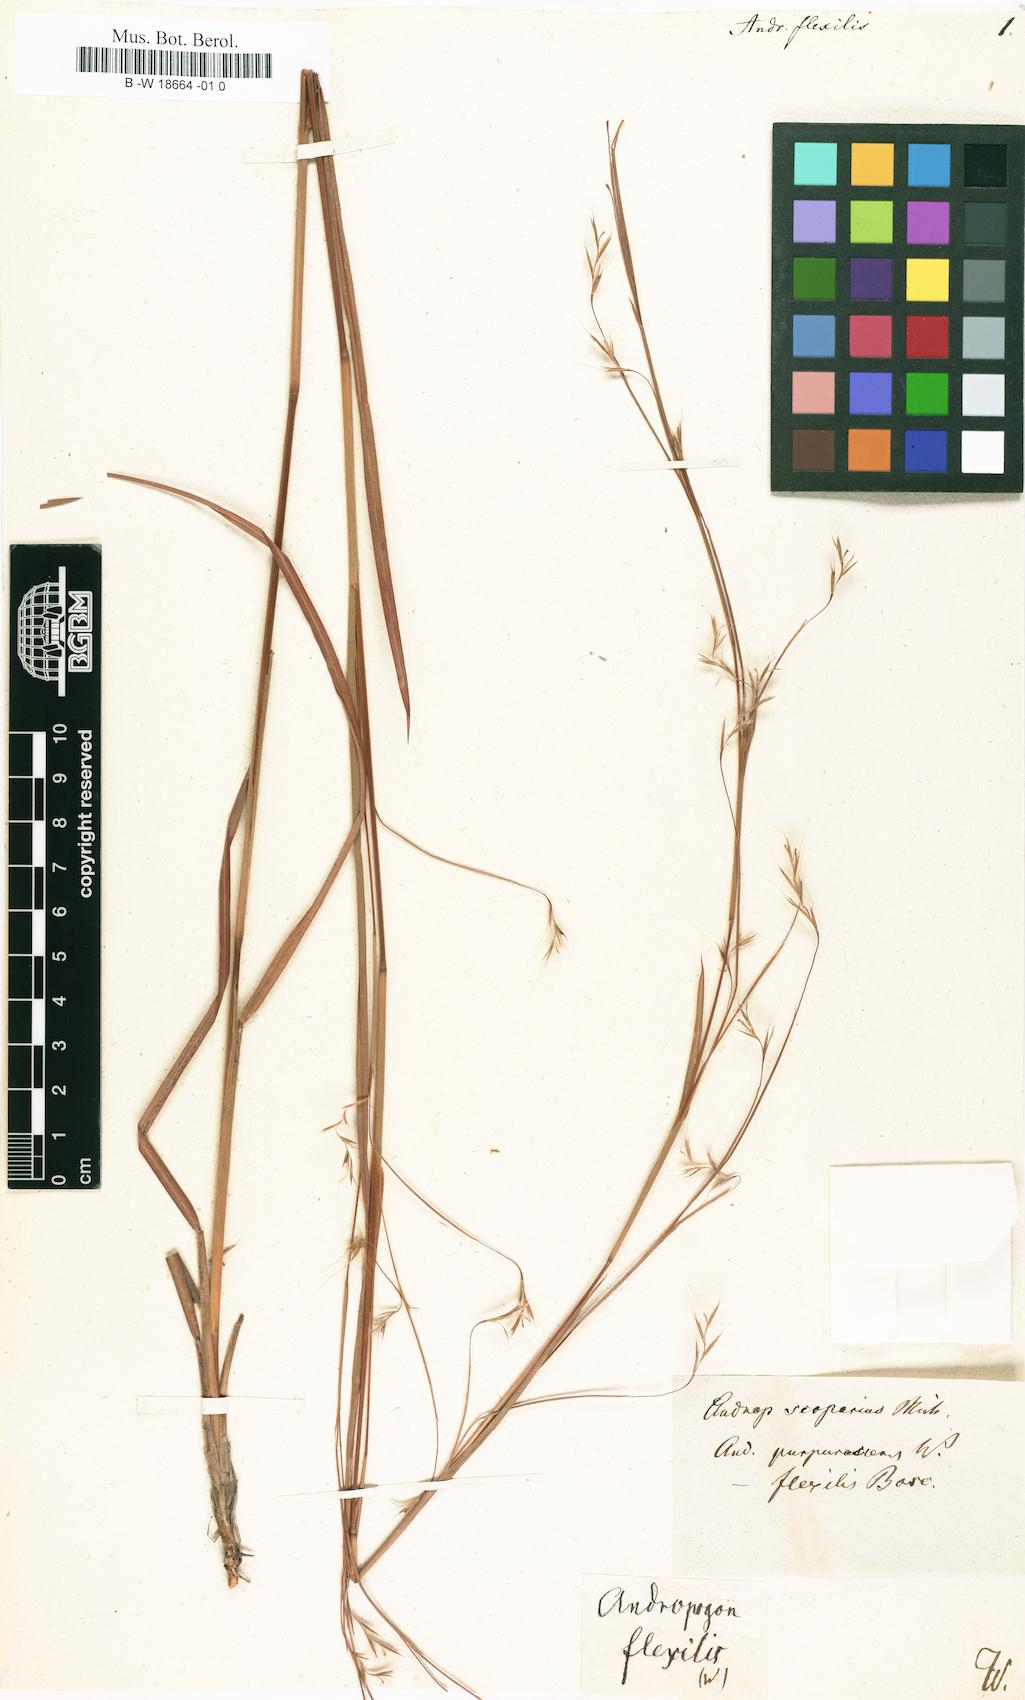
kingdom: Plantae
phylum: Tracheophyta
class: Liliopsida
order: Poales
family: Poaceae
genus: Schizachyrium
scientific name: Schizachyrium scoparium
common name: Little bluestem
